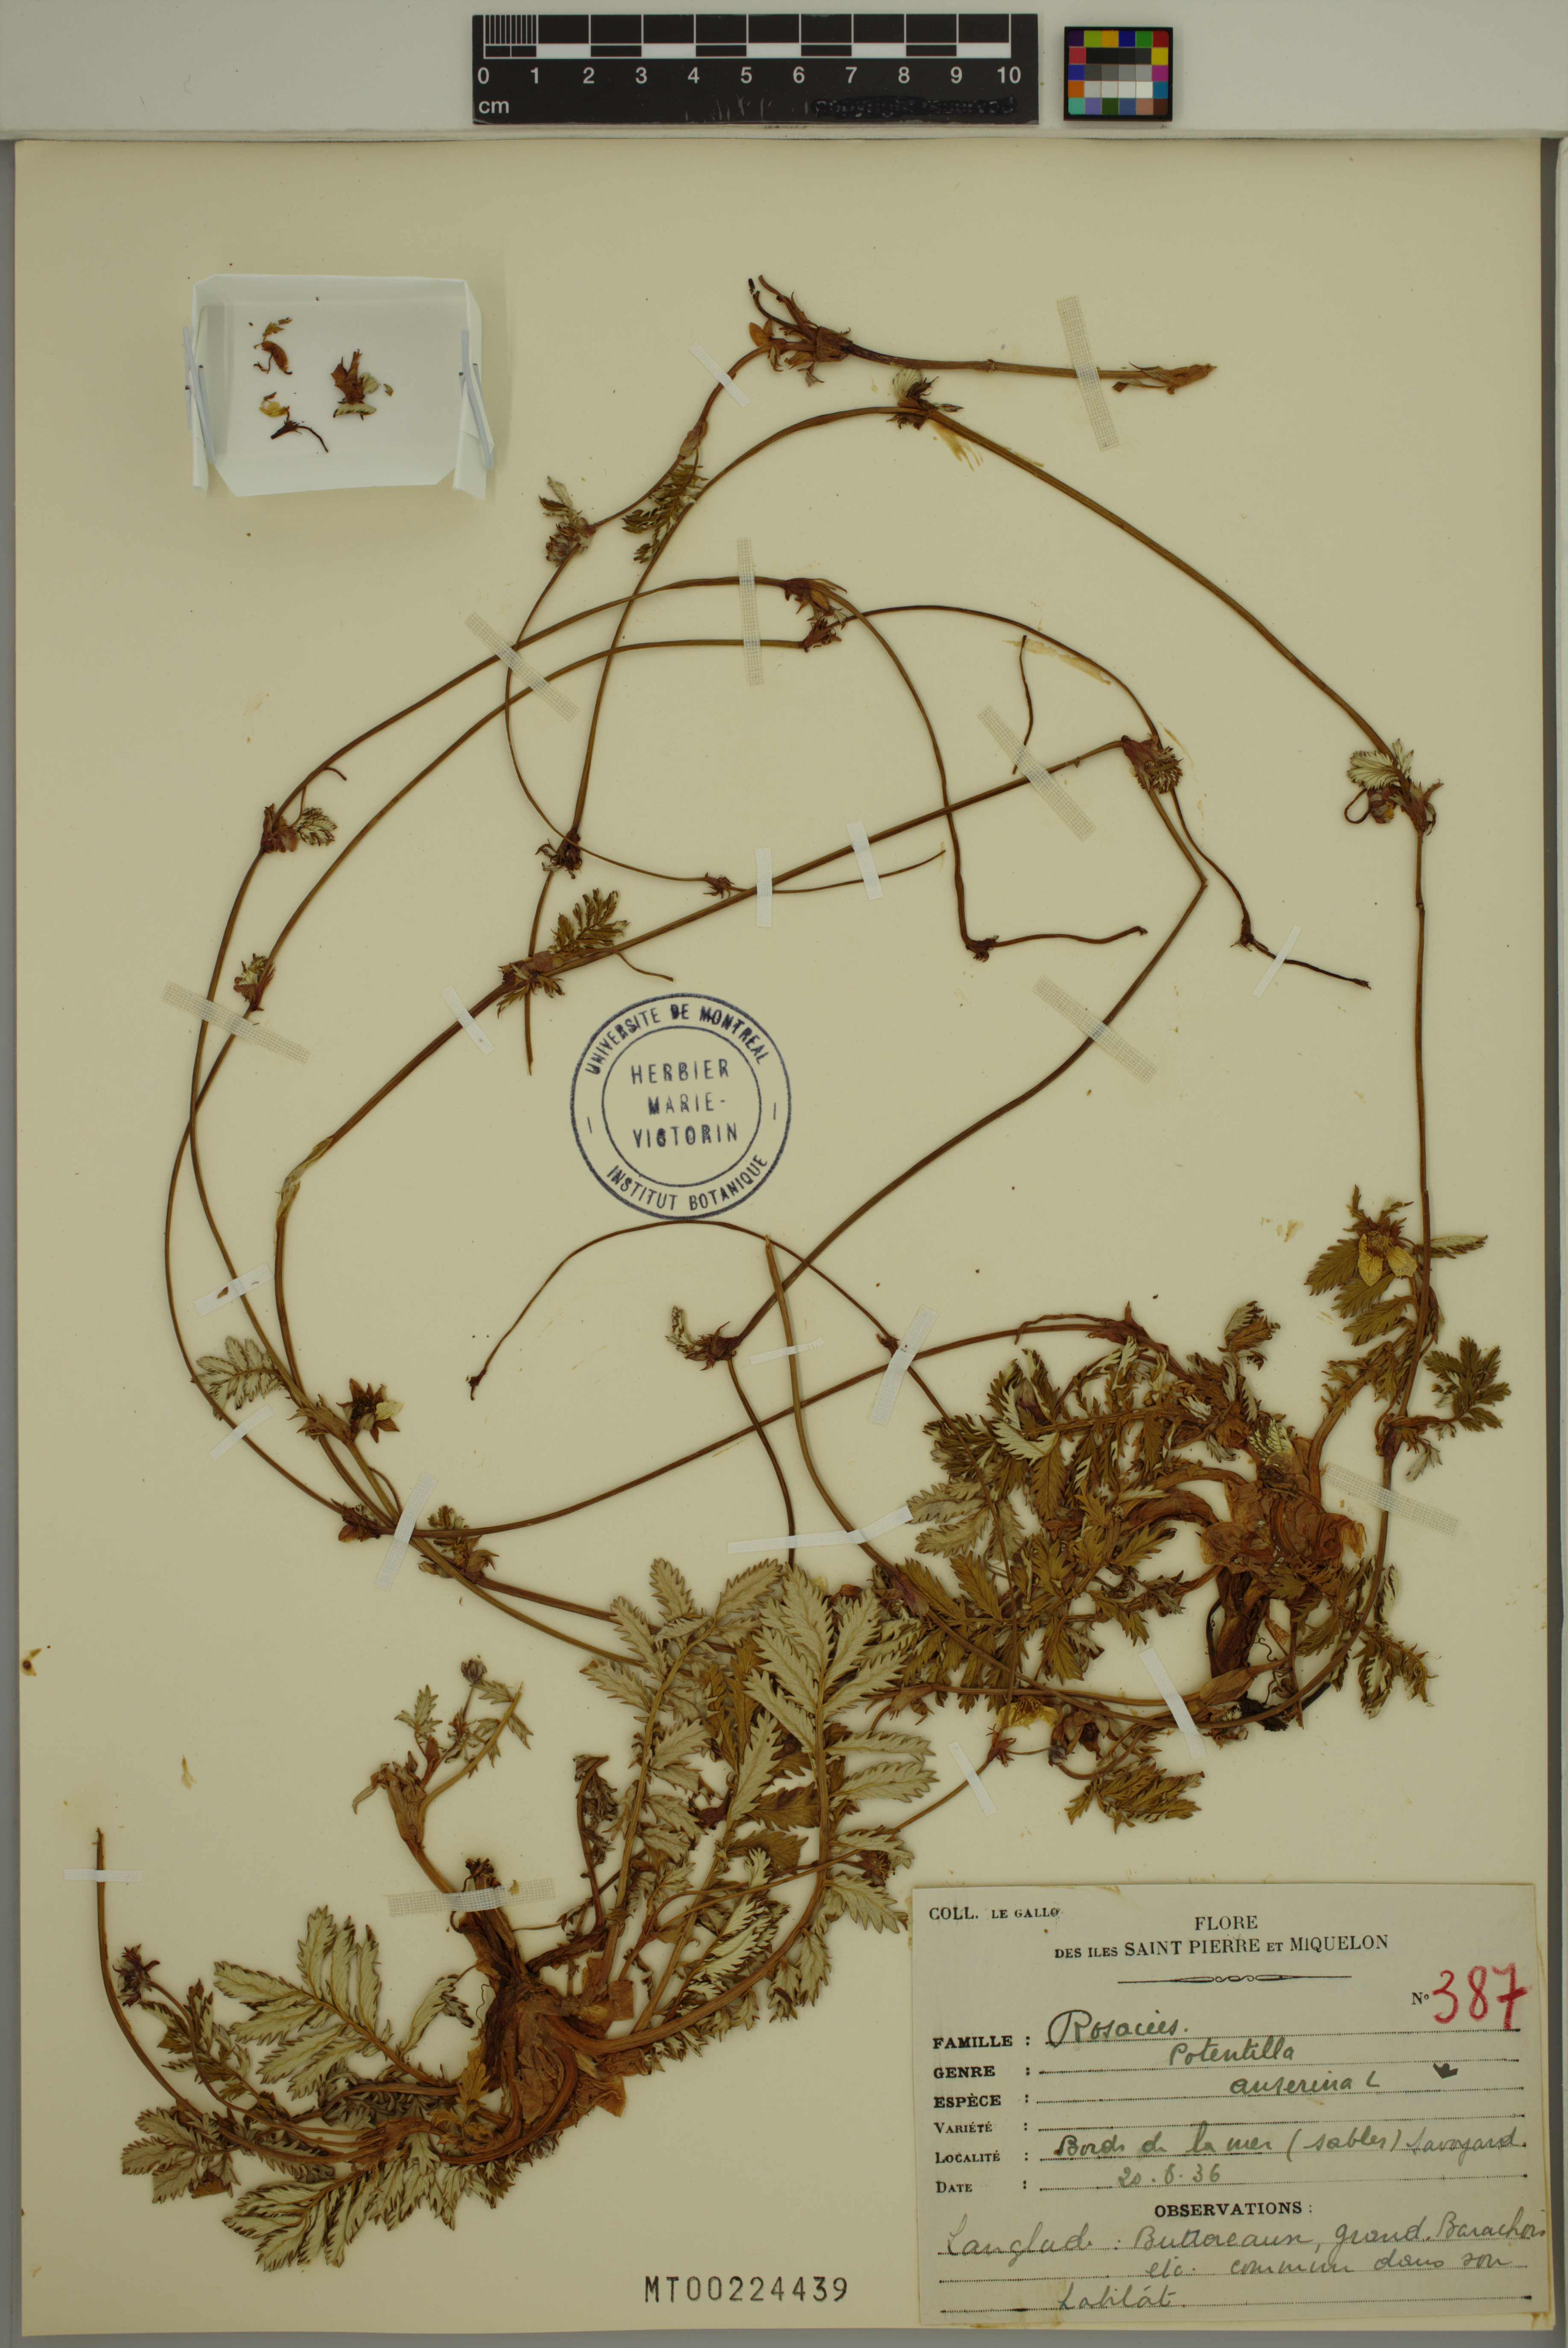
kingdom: Plantae
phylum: Tracheophyta
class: Magnoliopsida
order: Rosales
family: Rosaceae
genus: Argentina
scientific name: Argentina anserina
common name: Common silverweed
